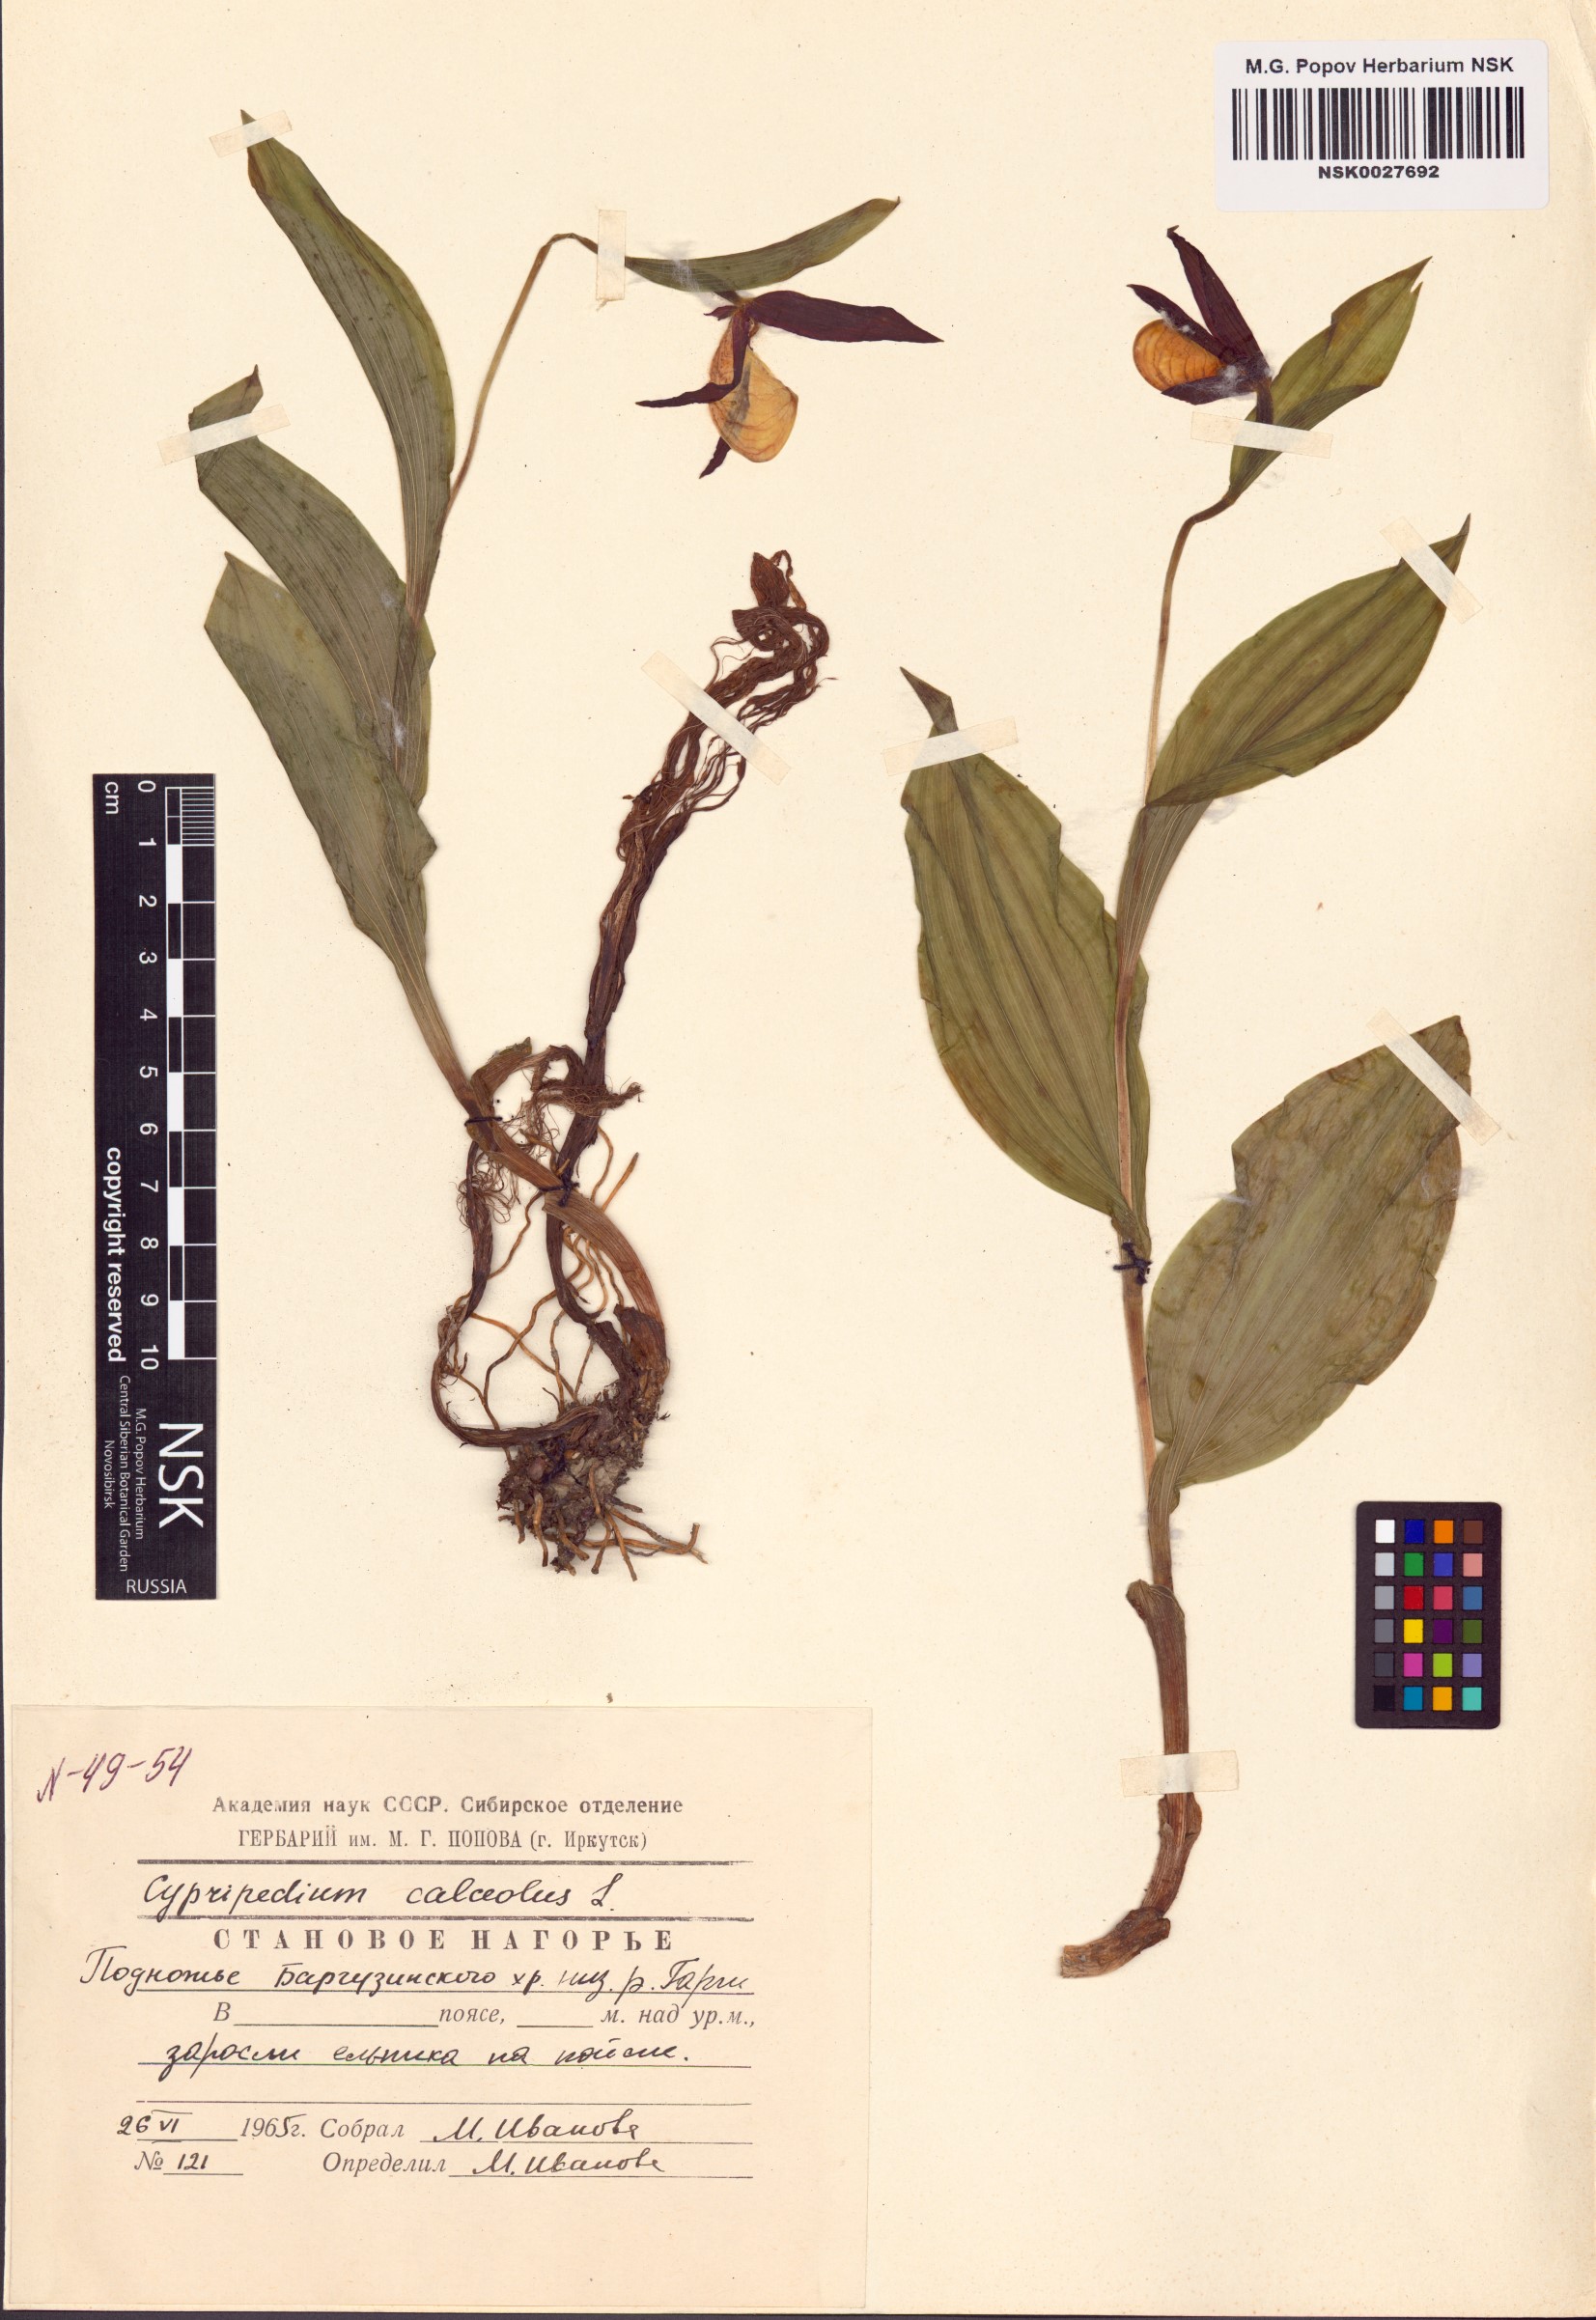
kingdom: Plantae
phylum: Tracheophyta
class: Liliopsida
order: Asparagales
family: Orchidaceae
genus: Cypripedium
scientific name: Cypripedium calceolus
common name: Lady's-slipper
